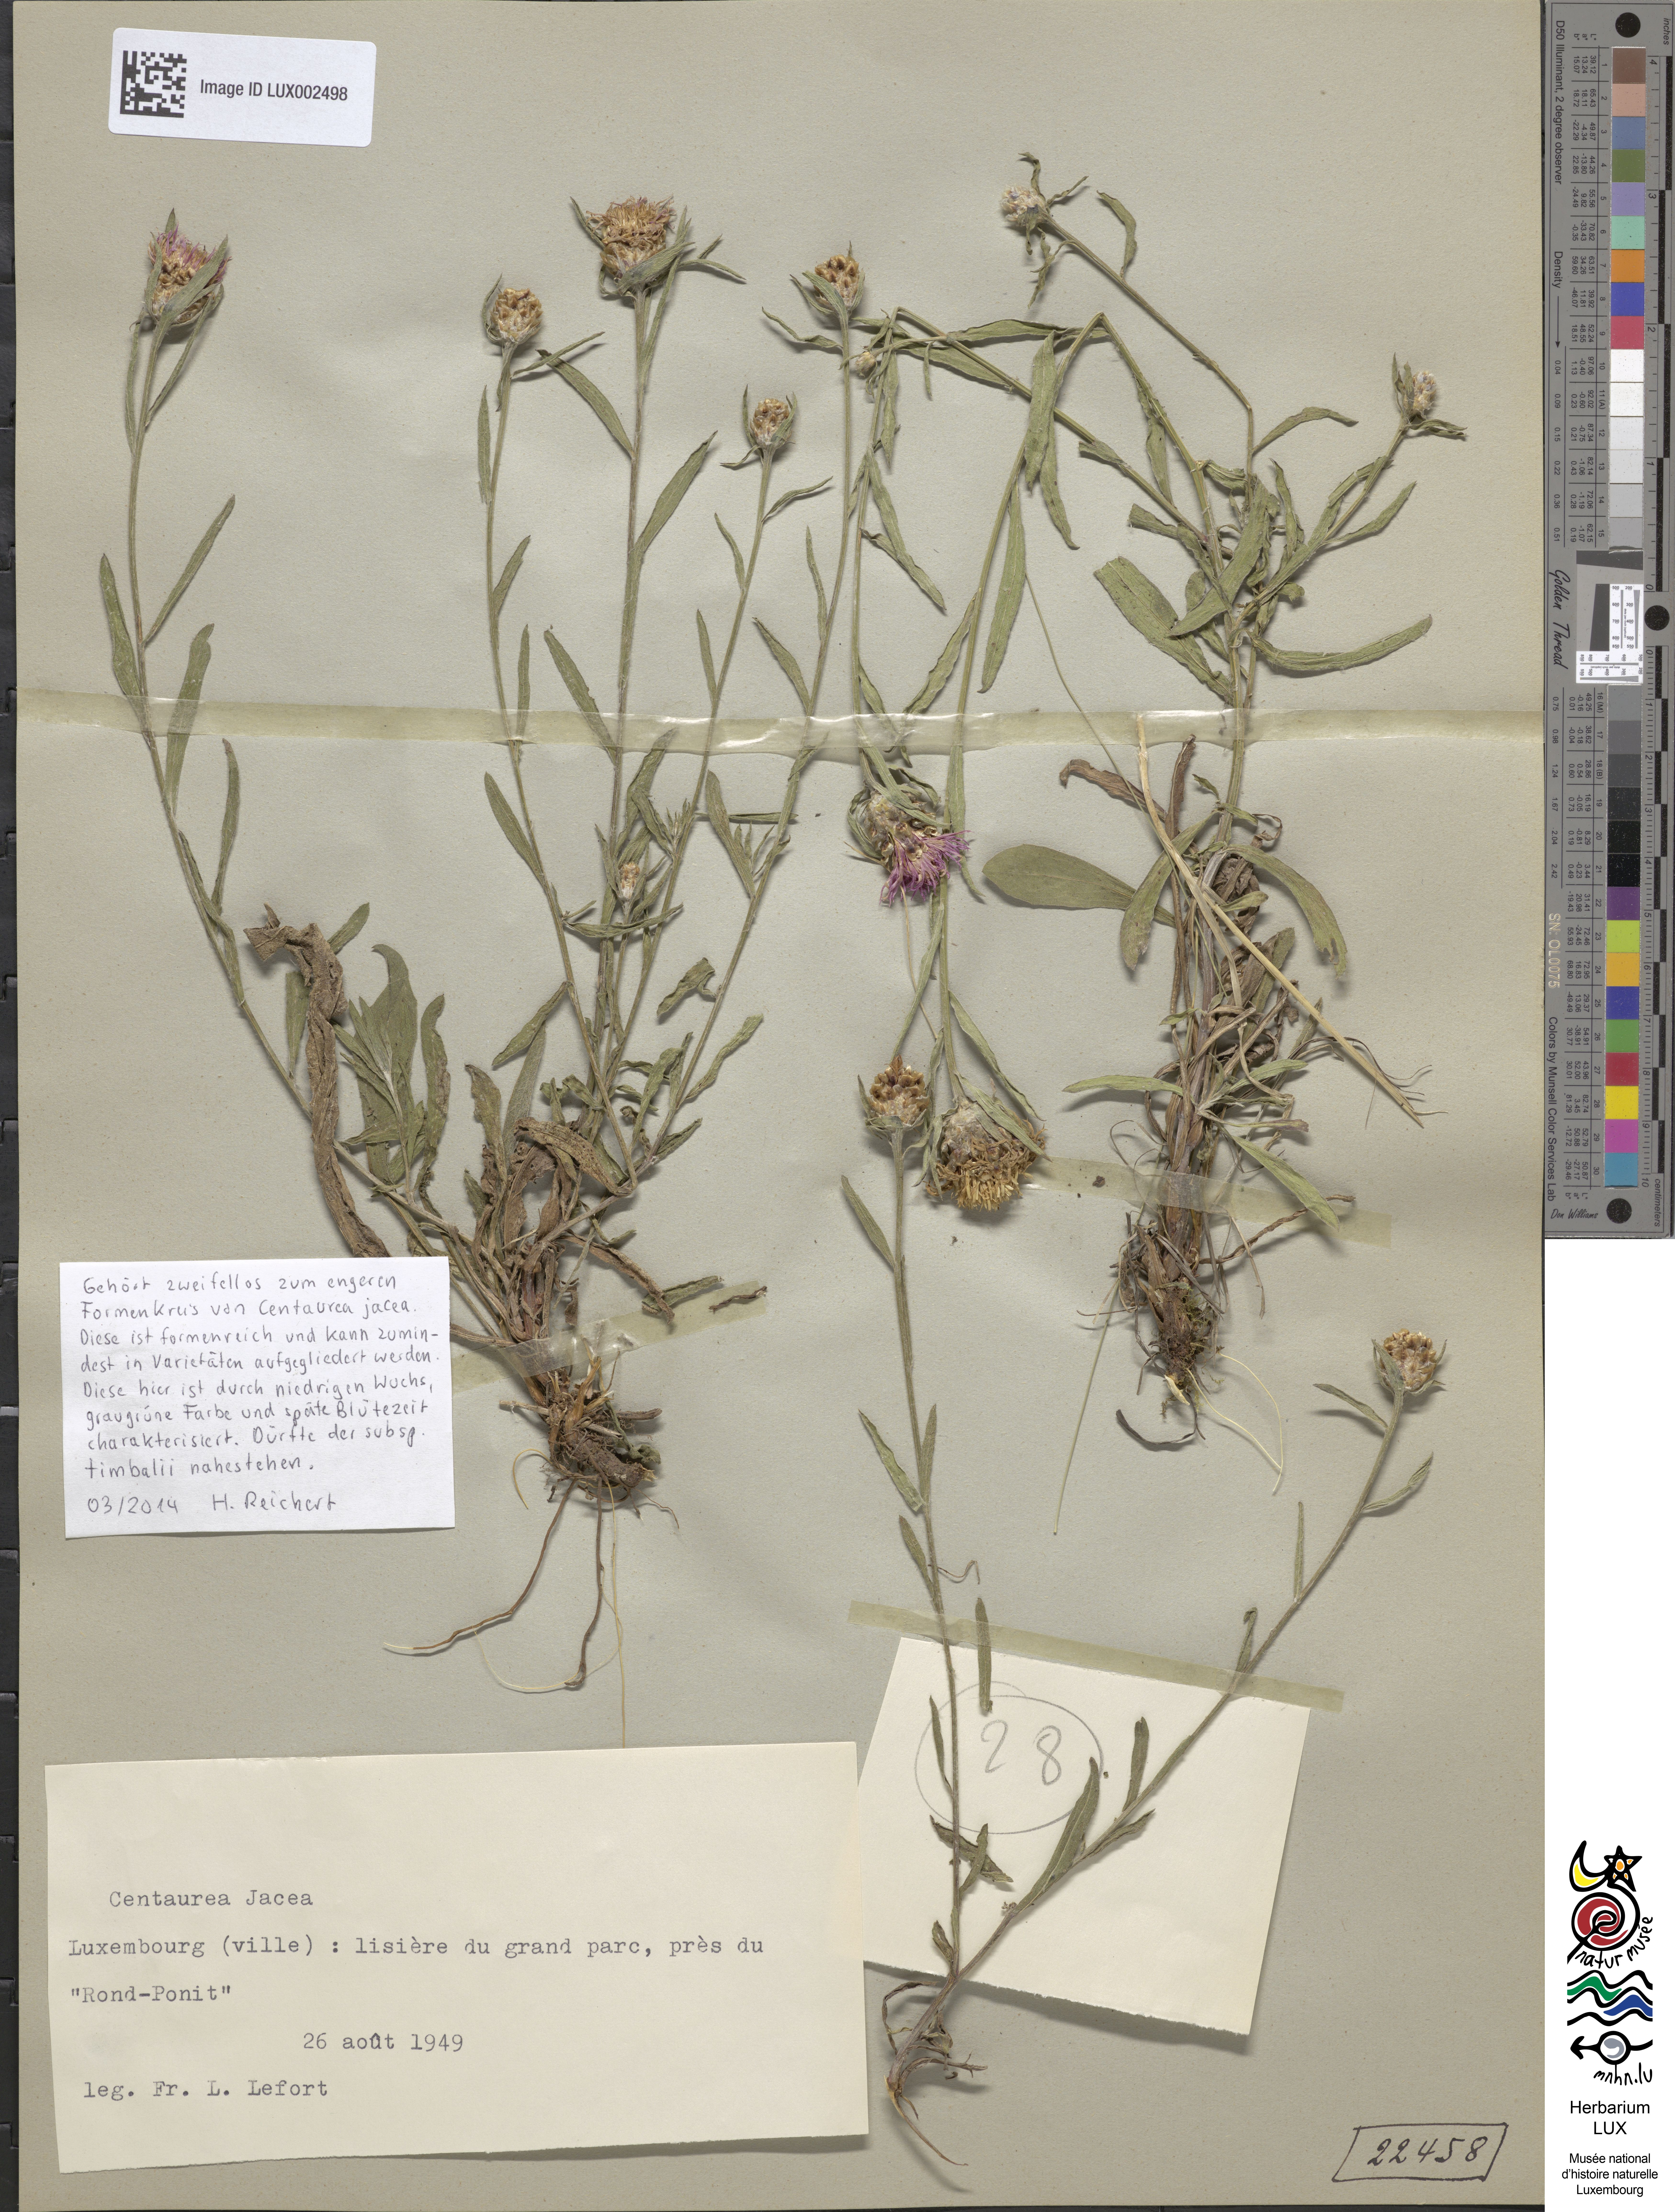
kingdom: Plantae
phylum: Tracheophyta
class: Magnoliopsida
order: Asterales
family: Asteraceae
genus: Centaurea
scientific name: Centaurea jacea
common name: Brown knapweed
